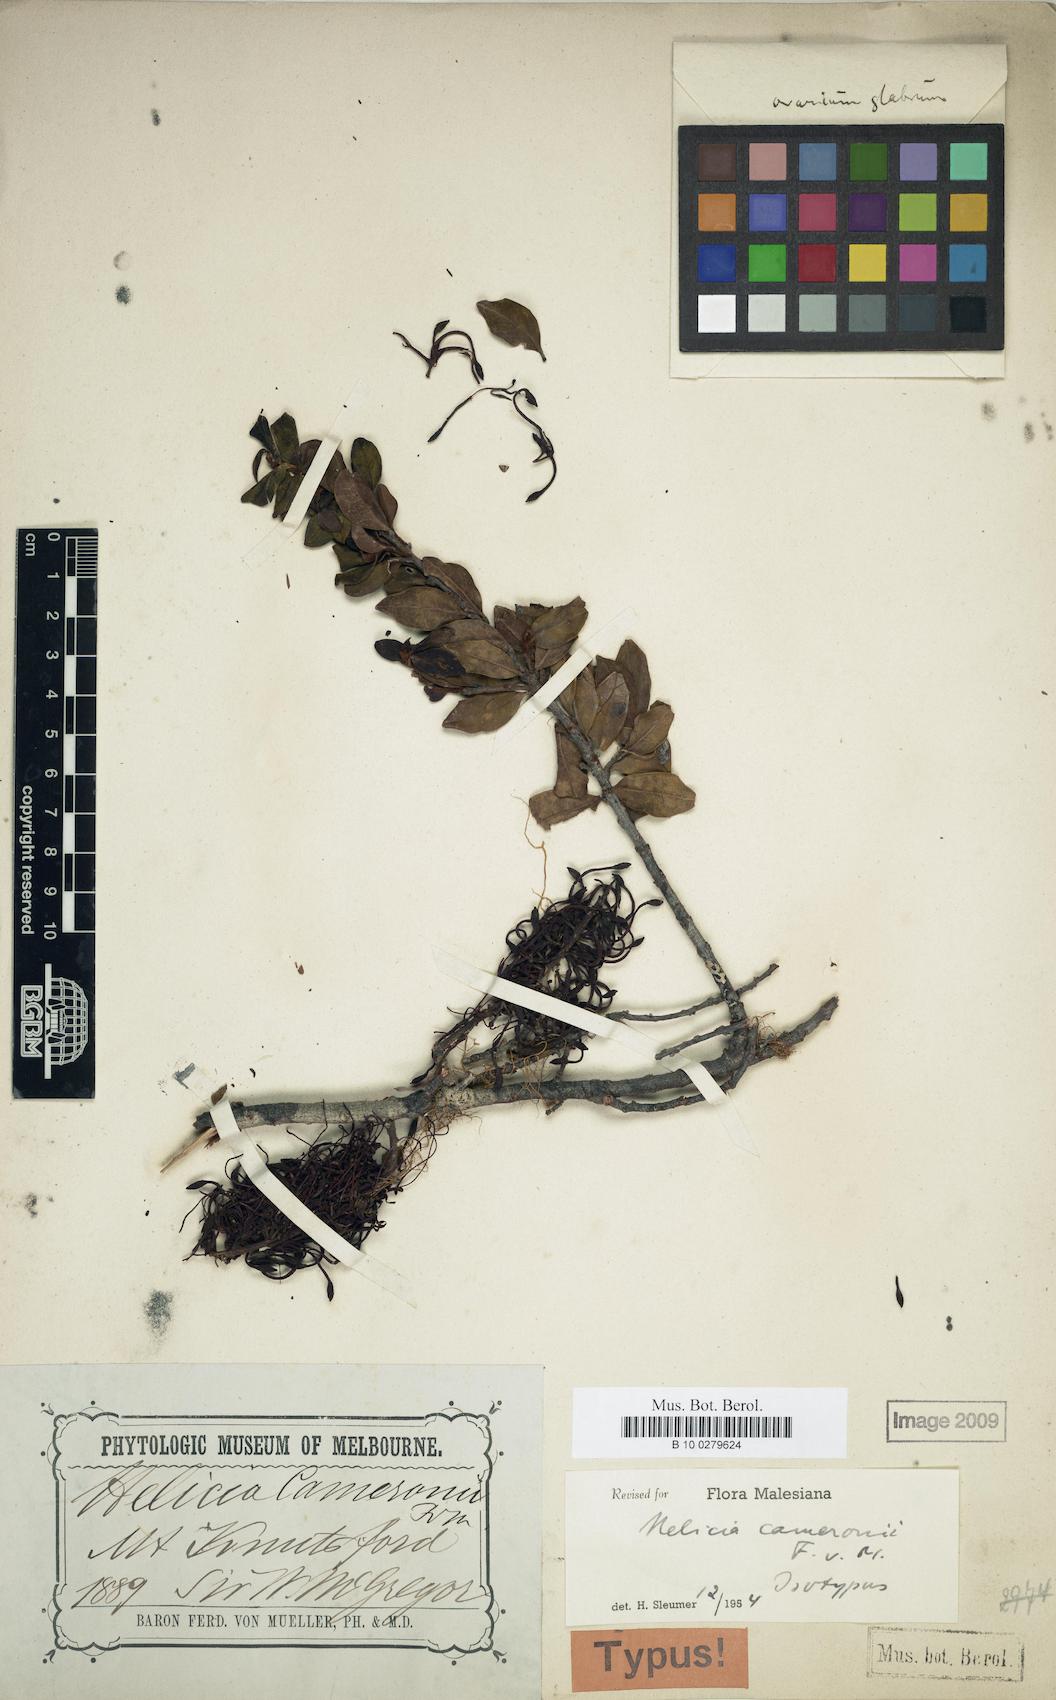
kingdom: Plantae
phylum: Tracheophyta
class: Liliopsida
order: Asparagales
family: Orchidaceae
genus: Trichopilia
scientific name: Trichopilia
